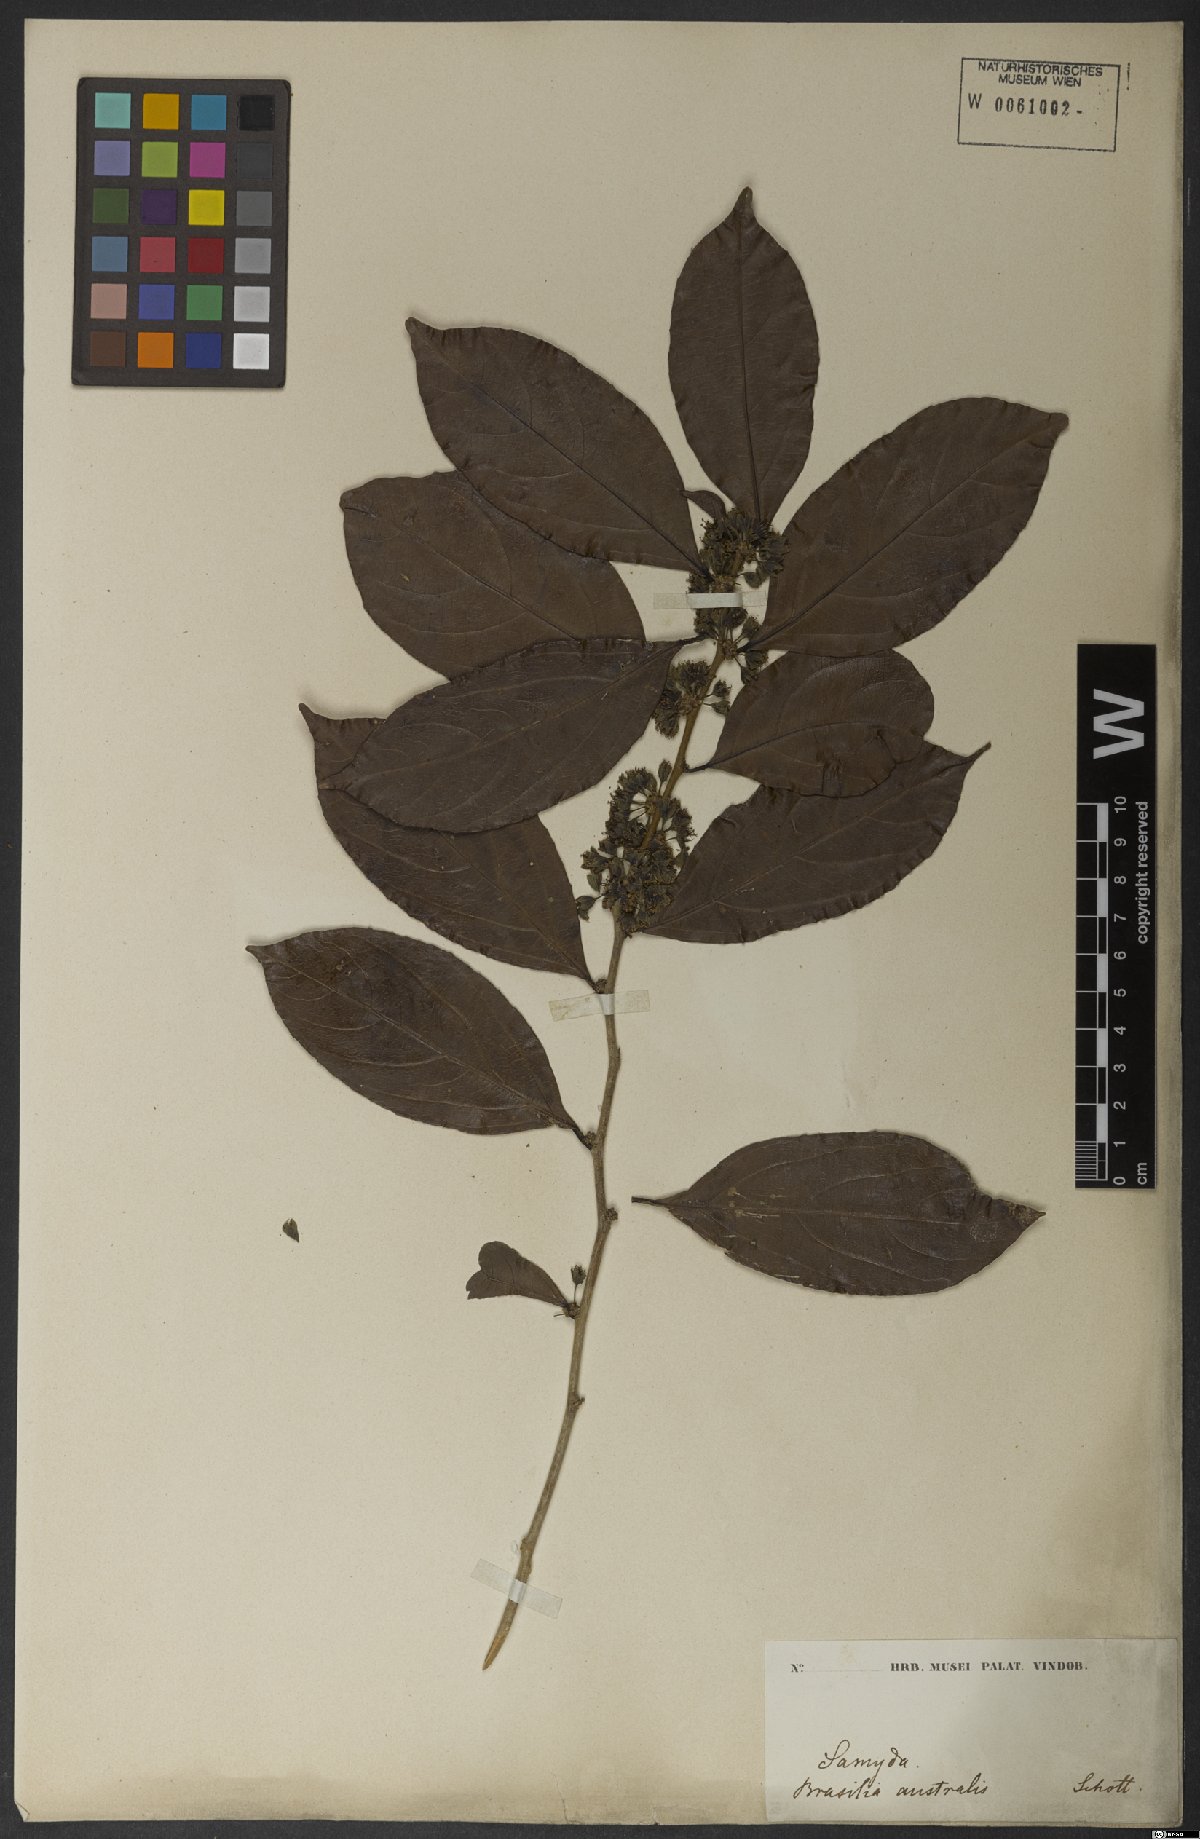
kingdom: Plantae
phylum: Tracheophyta
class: Magnoliopsida
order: Malpighiales
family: Salicaceae
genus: Piparea
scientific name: Piparea dentata
